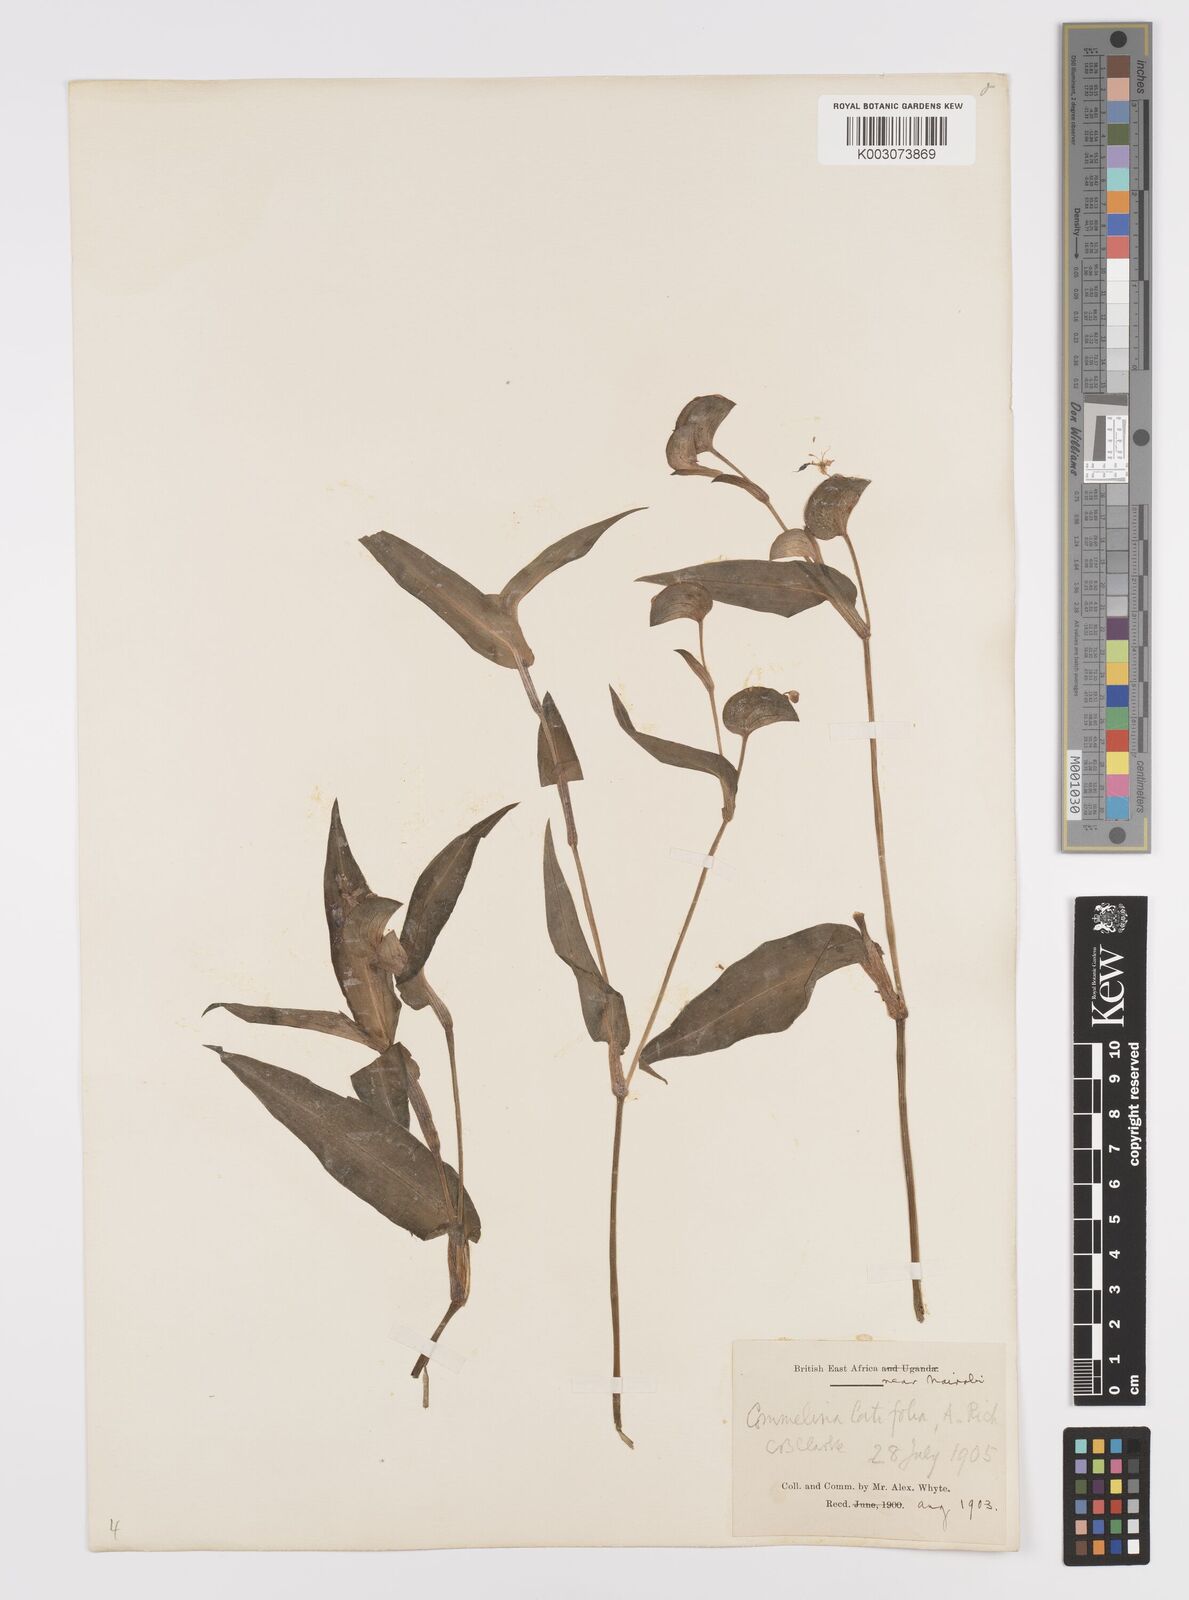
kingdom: Plantae
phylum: Tracheophyta
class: Liliopsida
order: Commelinales
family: Commelinaceae
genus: Commelina
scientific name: Commelina latifolia
